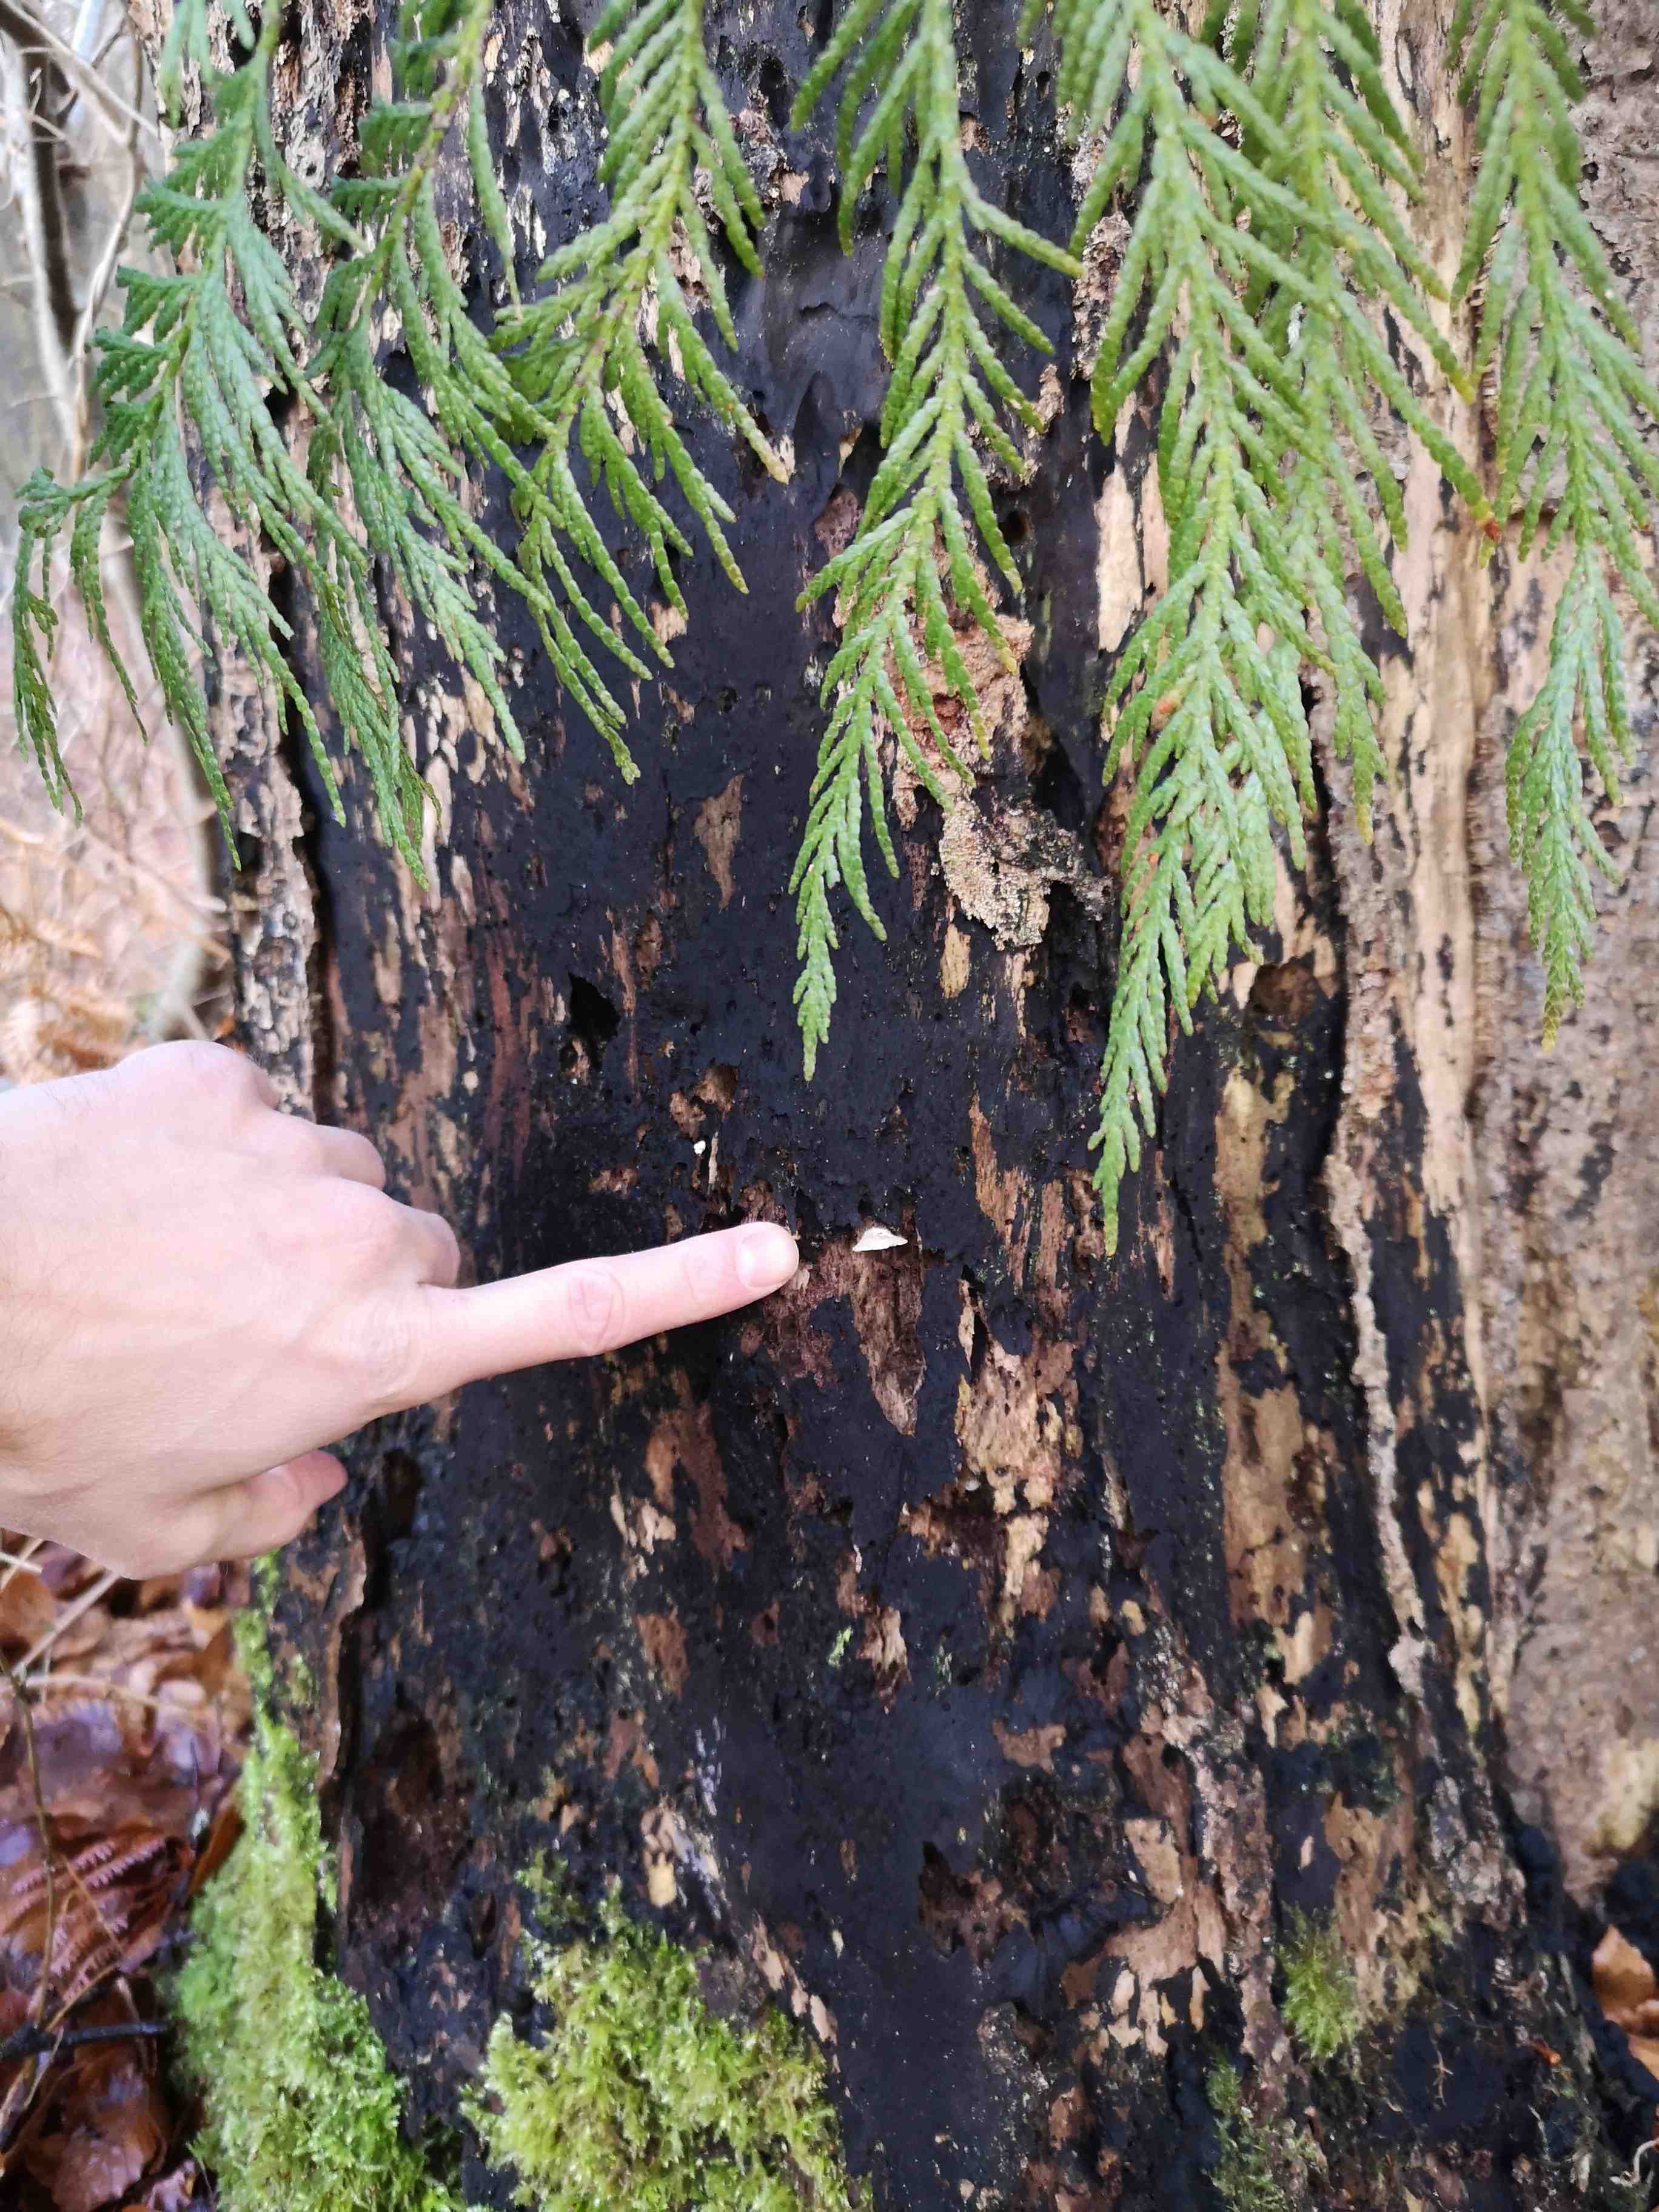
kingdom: Fungi
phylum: Basidiomycota
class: Agaricomycetes
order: Agaricales
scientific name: Agaricales
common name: champignonordenen
